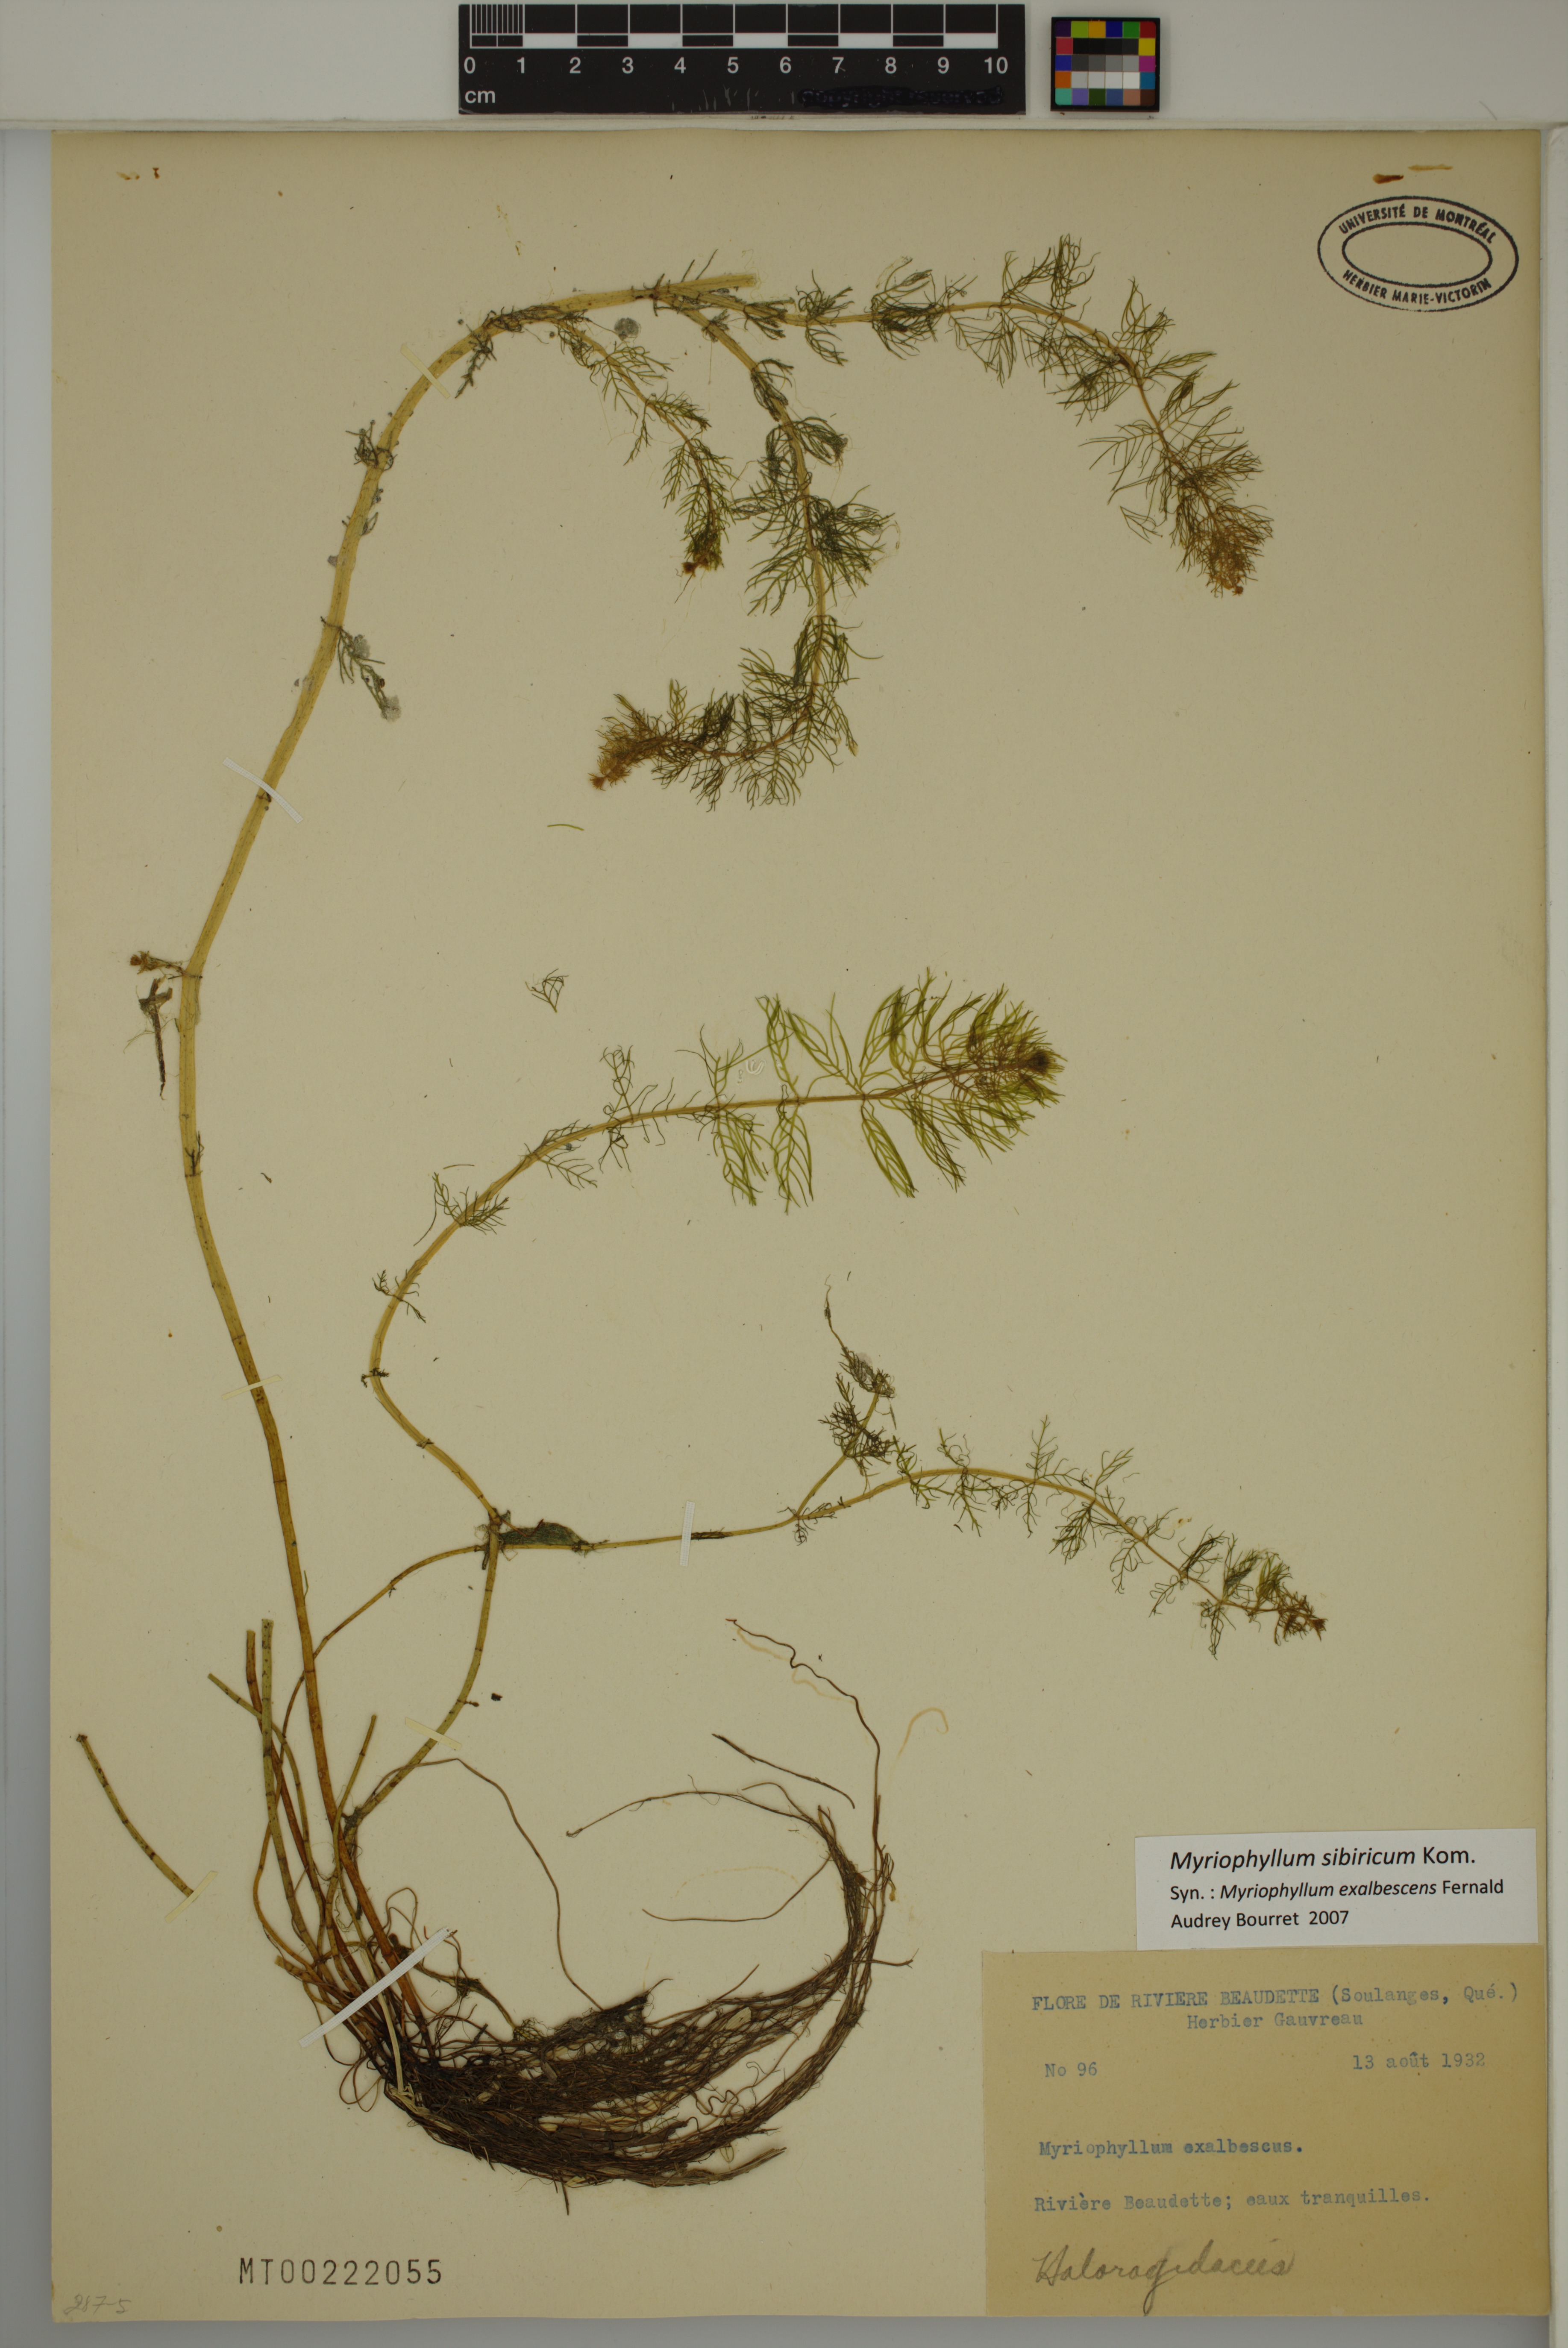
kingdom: Plantae
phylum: Tracheophyta
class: Magnoliopsida
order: Saxifragales
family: Haloragaceae
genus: Myriophyllum
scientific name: Myriophyllum sibiricum
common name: Siberian water-milfoil
